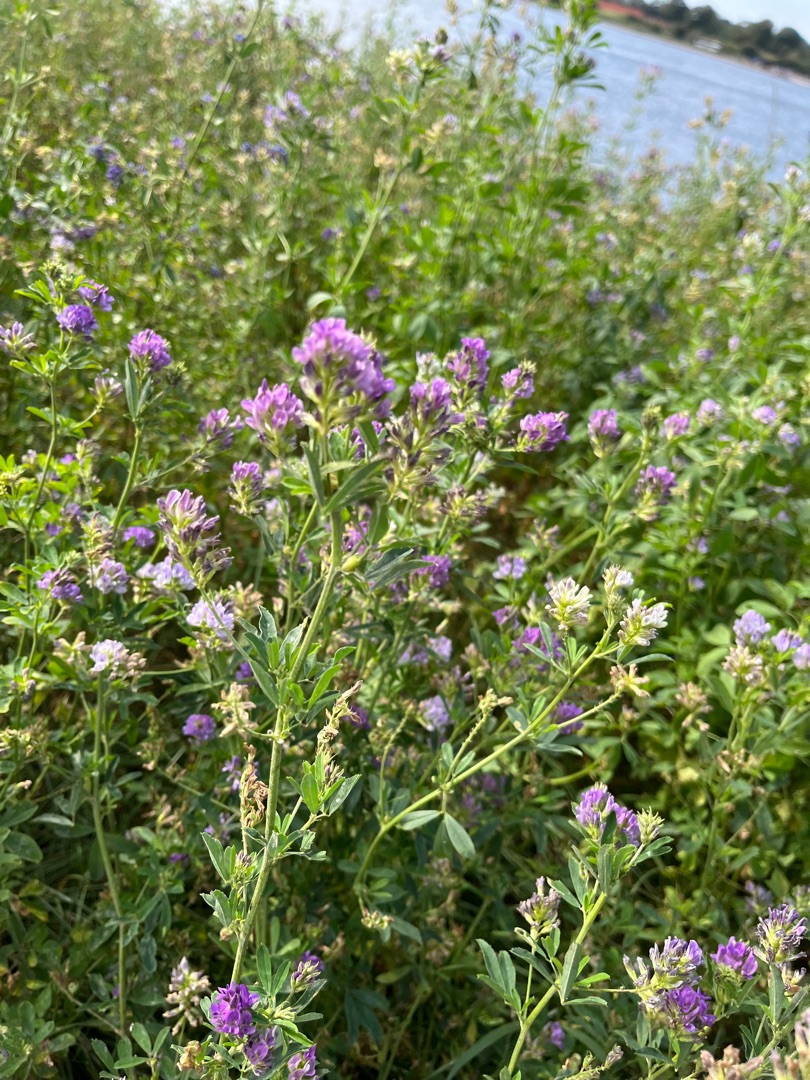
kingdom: Plantae
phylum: Tracheophyta
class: Magnoliopsida
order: Fabales
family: Fabaceae
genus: Medicago
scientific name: Medicago sativa
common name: Lucerne
